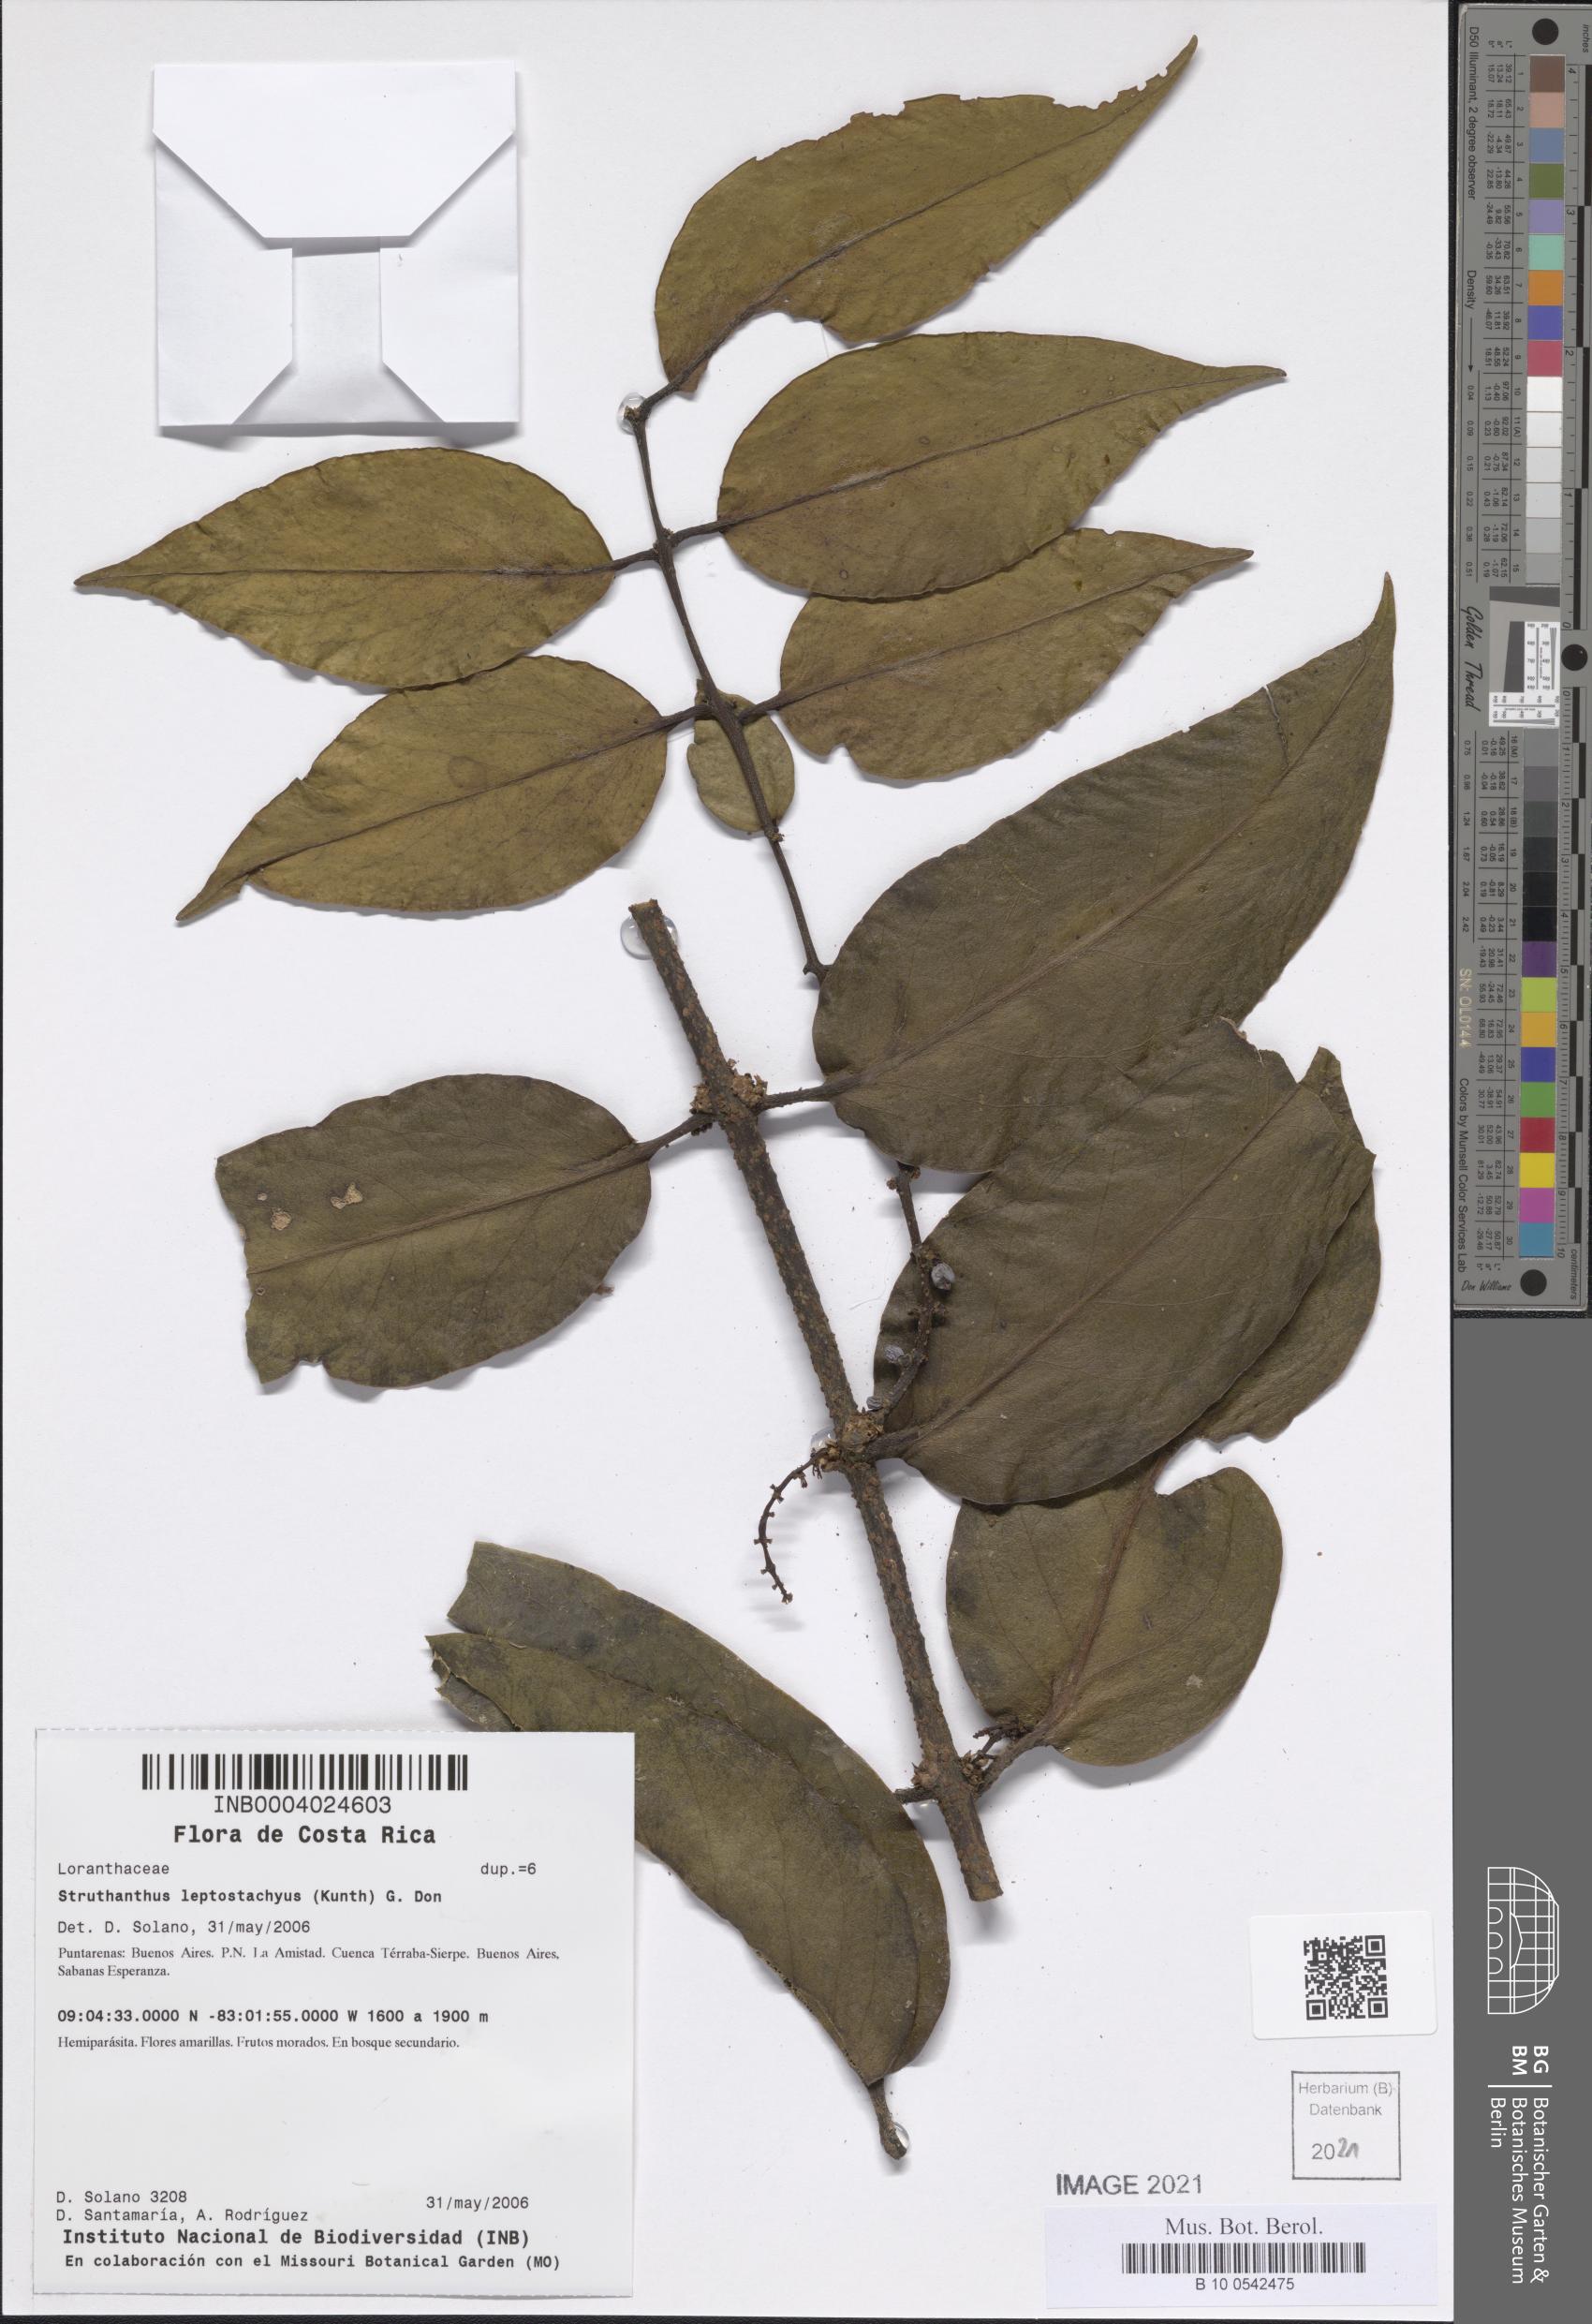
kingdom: Plantae
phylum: Tracheophyta
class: Magnoliopsida
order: Santalales
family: Loranthaceae
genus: Peristethium
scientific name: Peristethium leptostachyum
